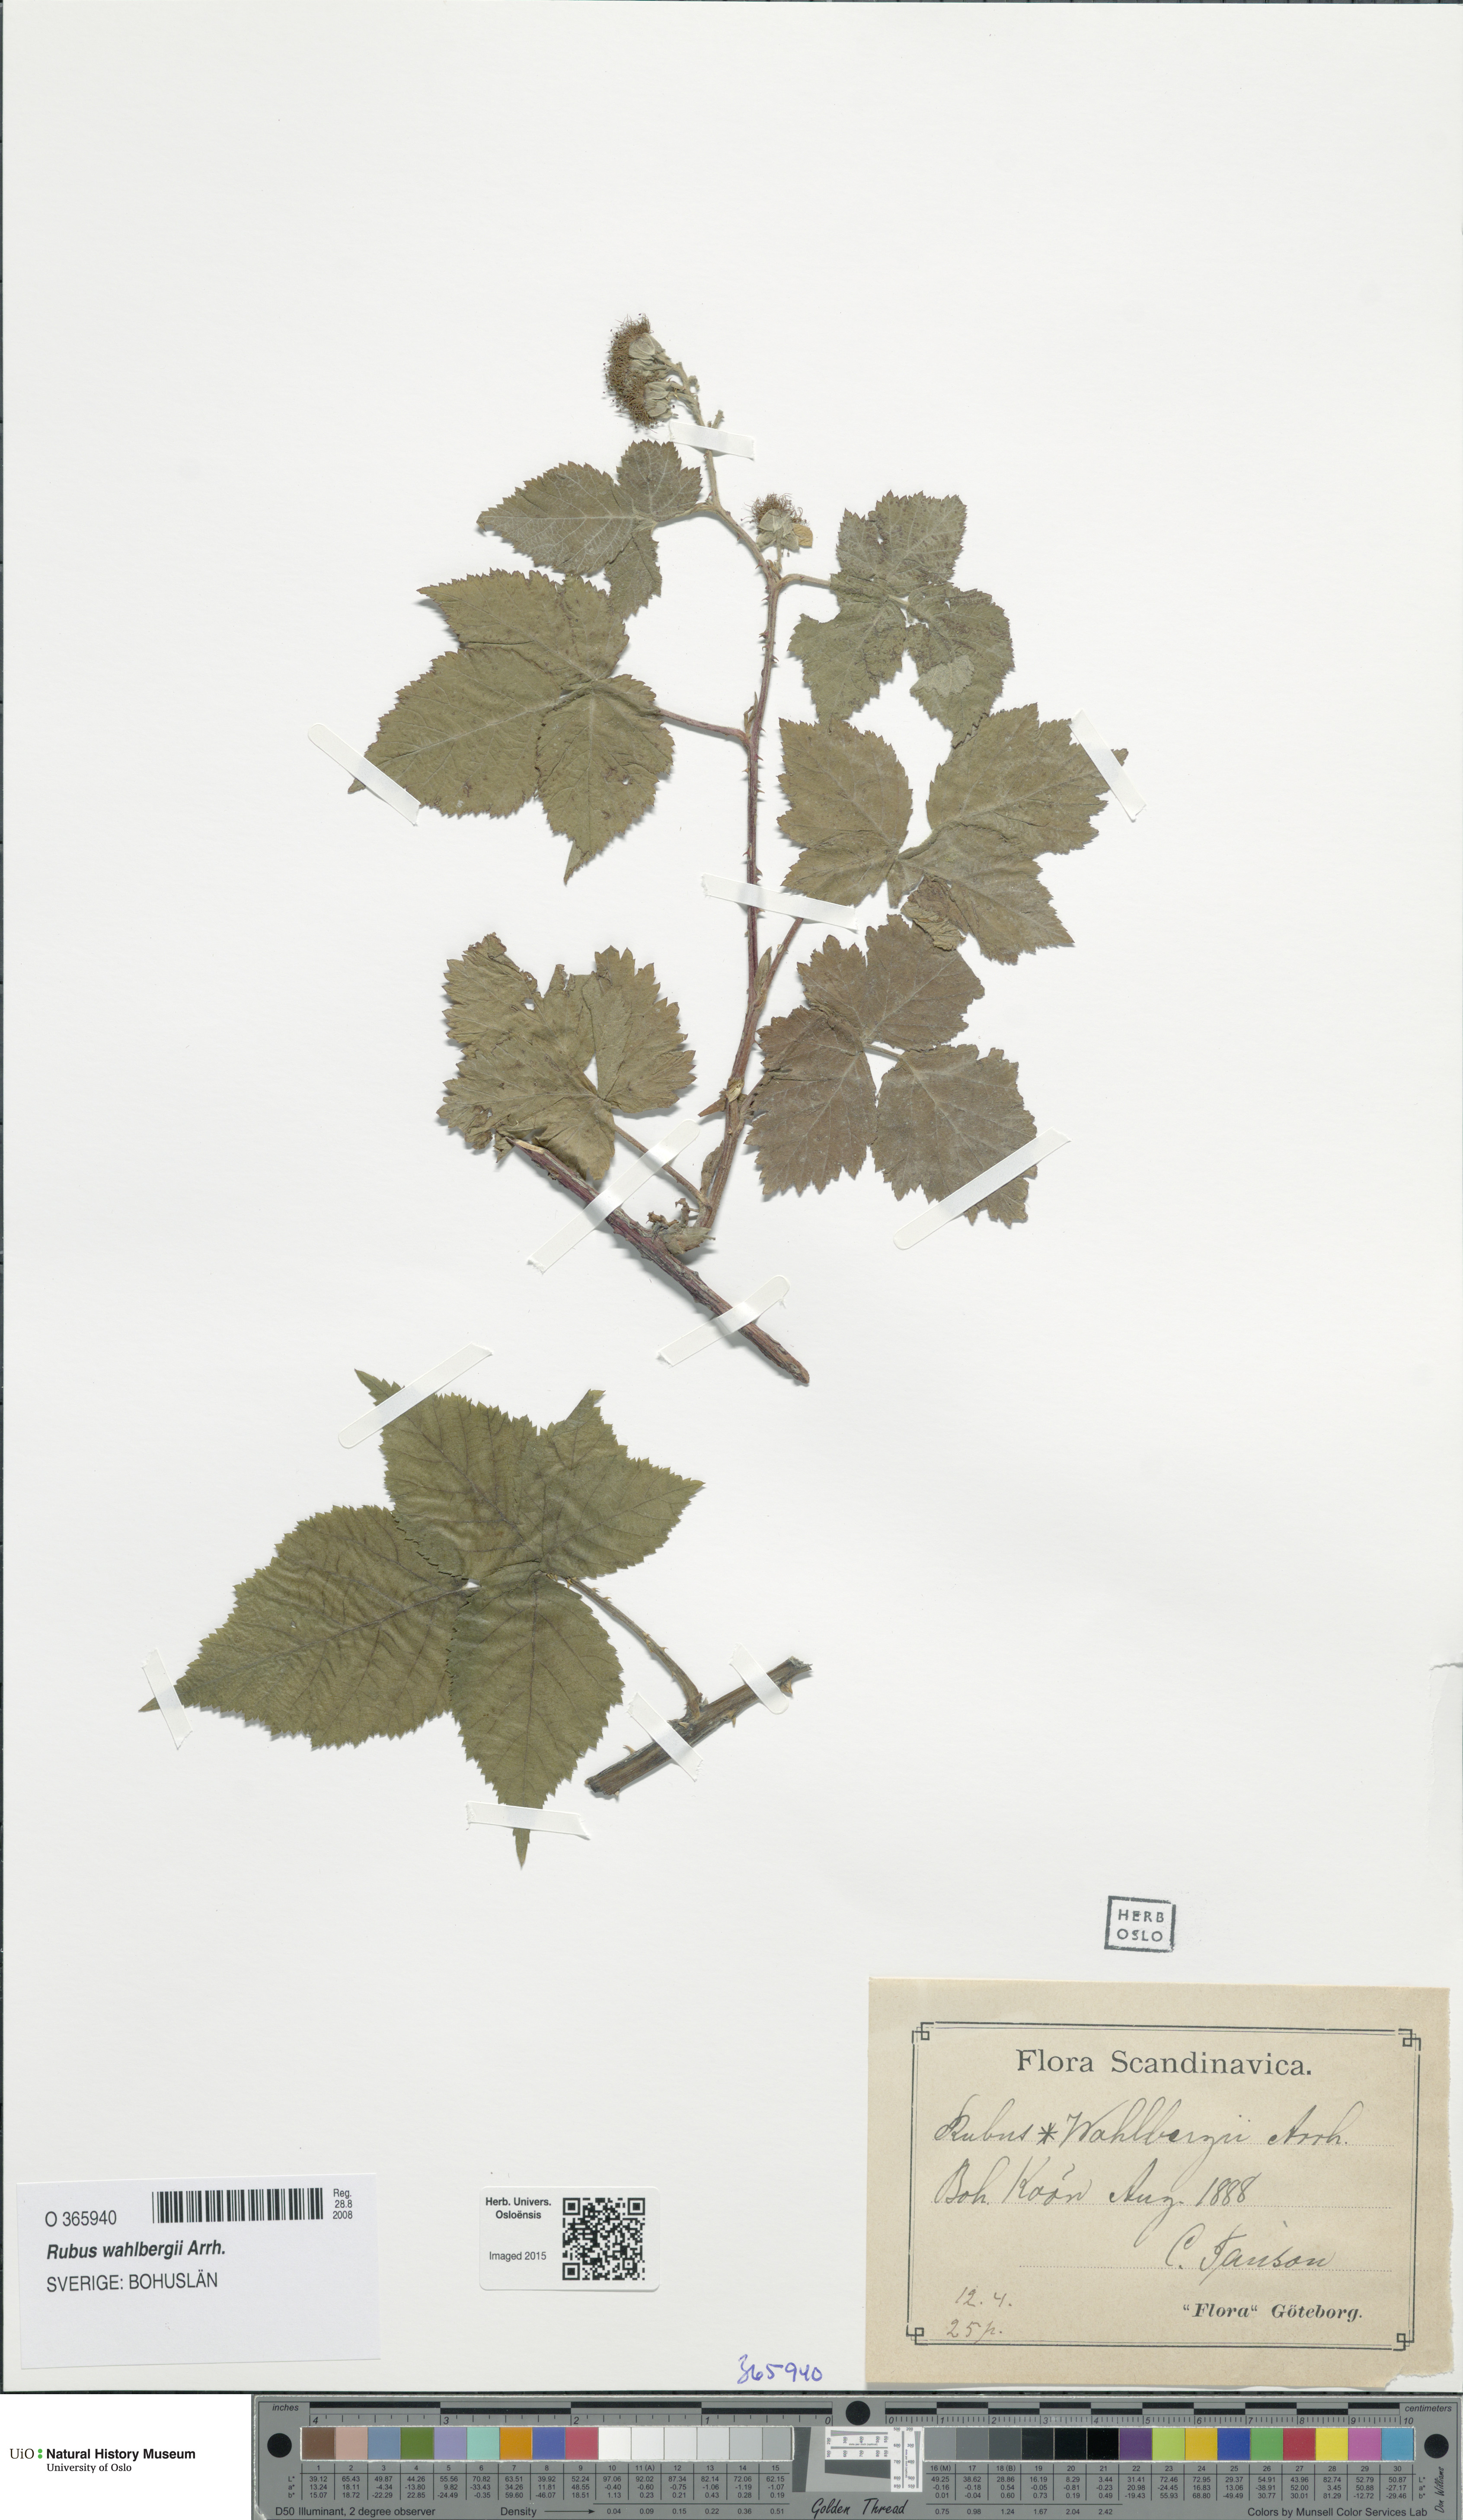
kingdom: Plantae
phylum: Tracheophyta
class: Magnoliopsida
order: Rosales
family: Rosaceae
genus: Rubus
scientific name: Rubus wahlbergii
